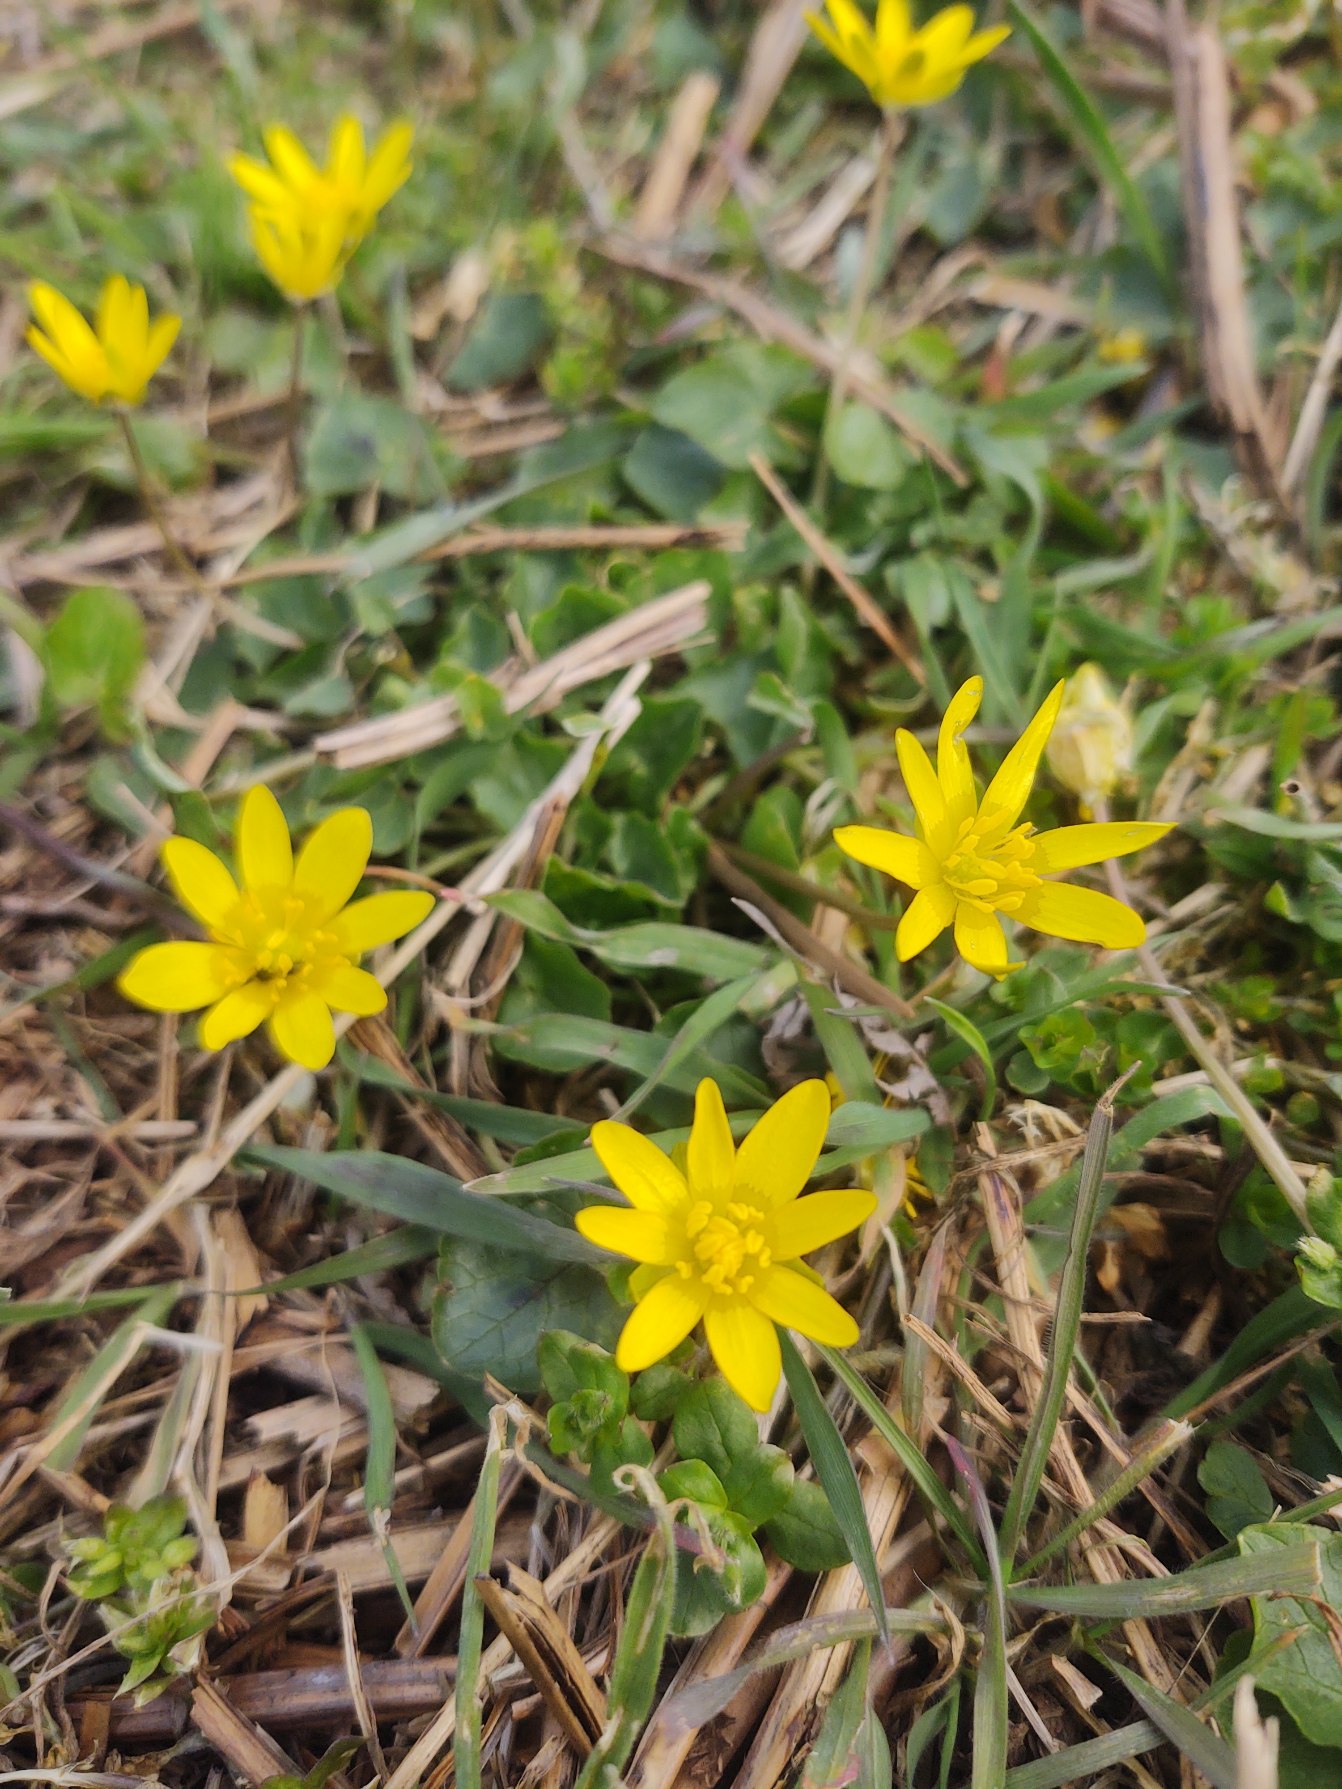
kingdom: Plantae
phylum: Tracheophyta
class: Magnoliopsida
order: Ranunculales
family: Ranunculaceae
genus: Ficaria
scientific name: Ficaria verna
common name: Vorterod
